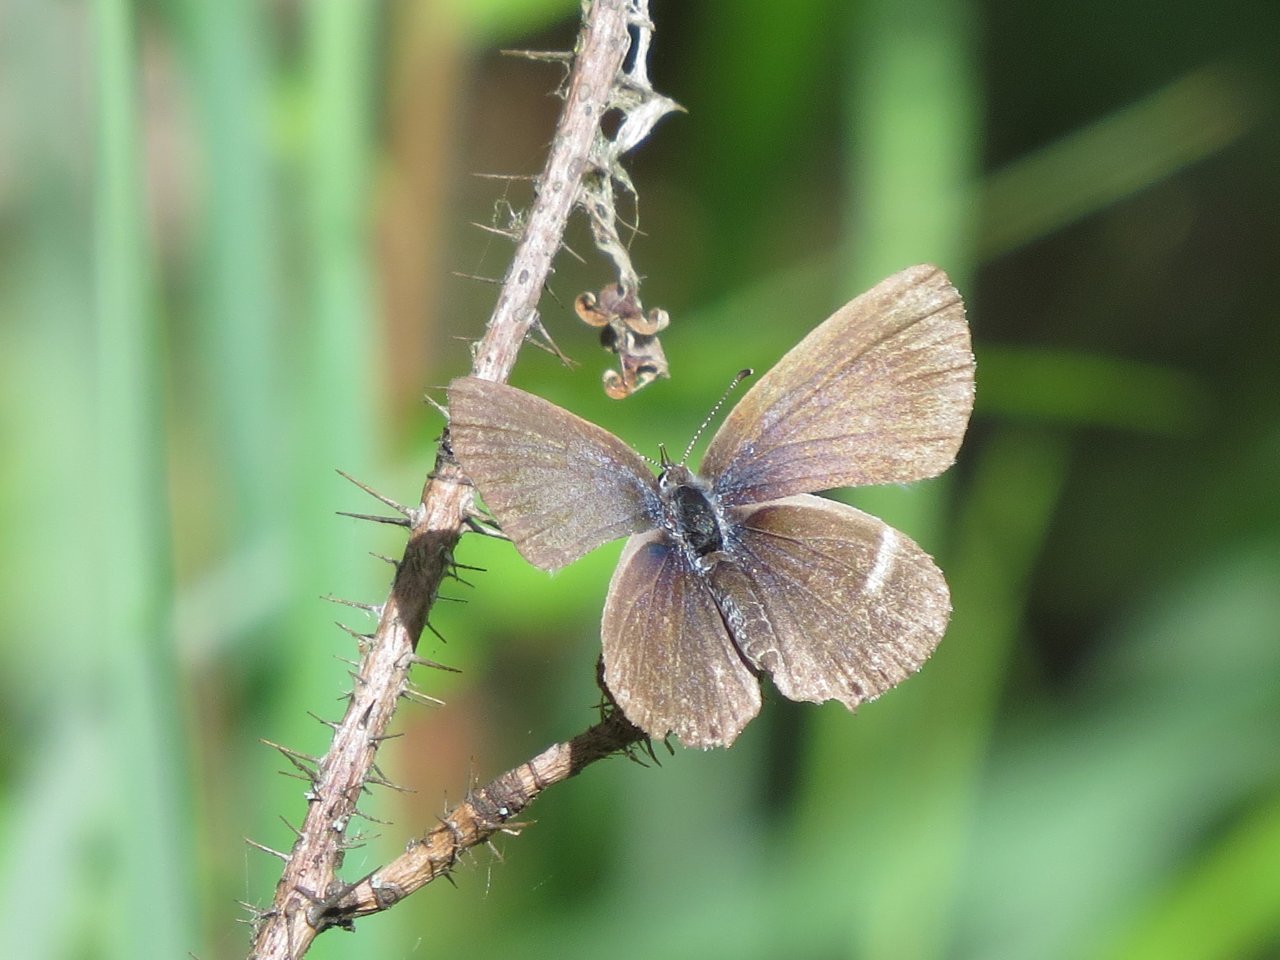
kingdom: Animalia
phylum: Arthropoda
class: Insecta
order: Lepidoptera
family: Lycaenidae
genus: Elkalyce
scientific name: Elkalyce amyntula
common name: Western Tailed-Blue
